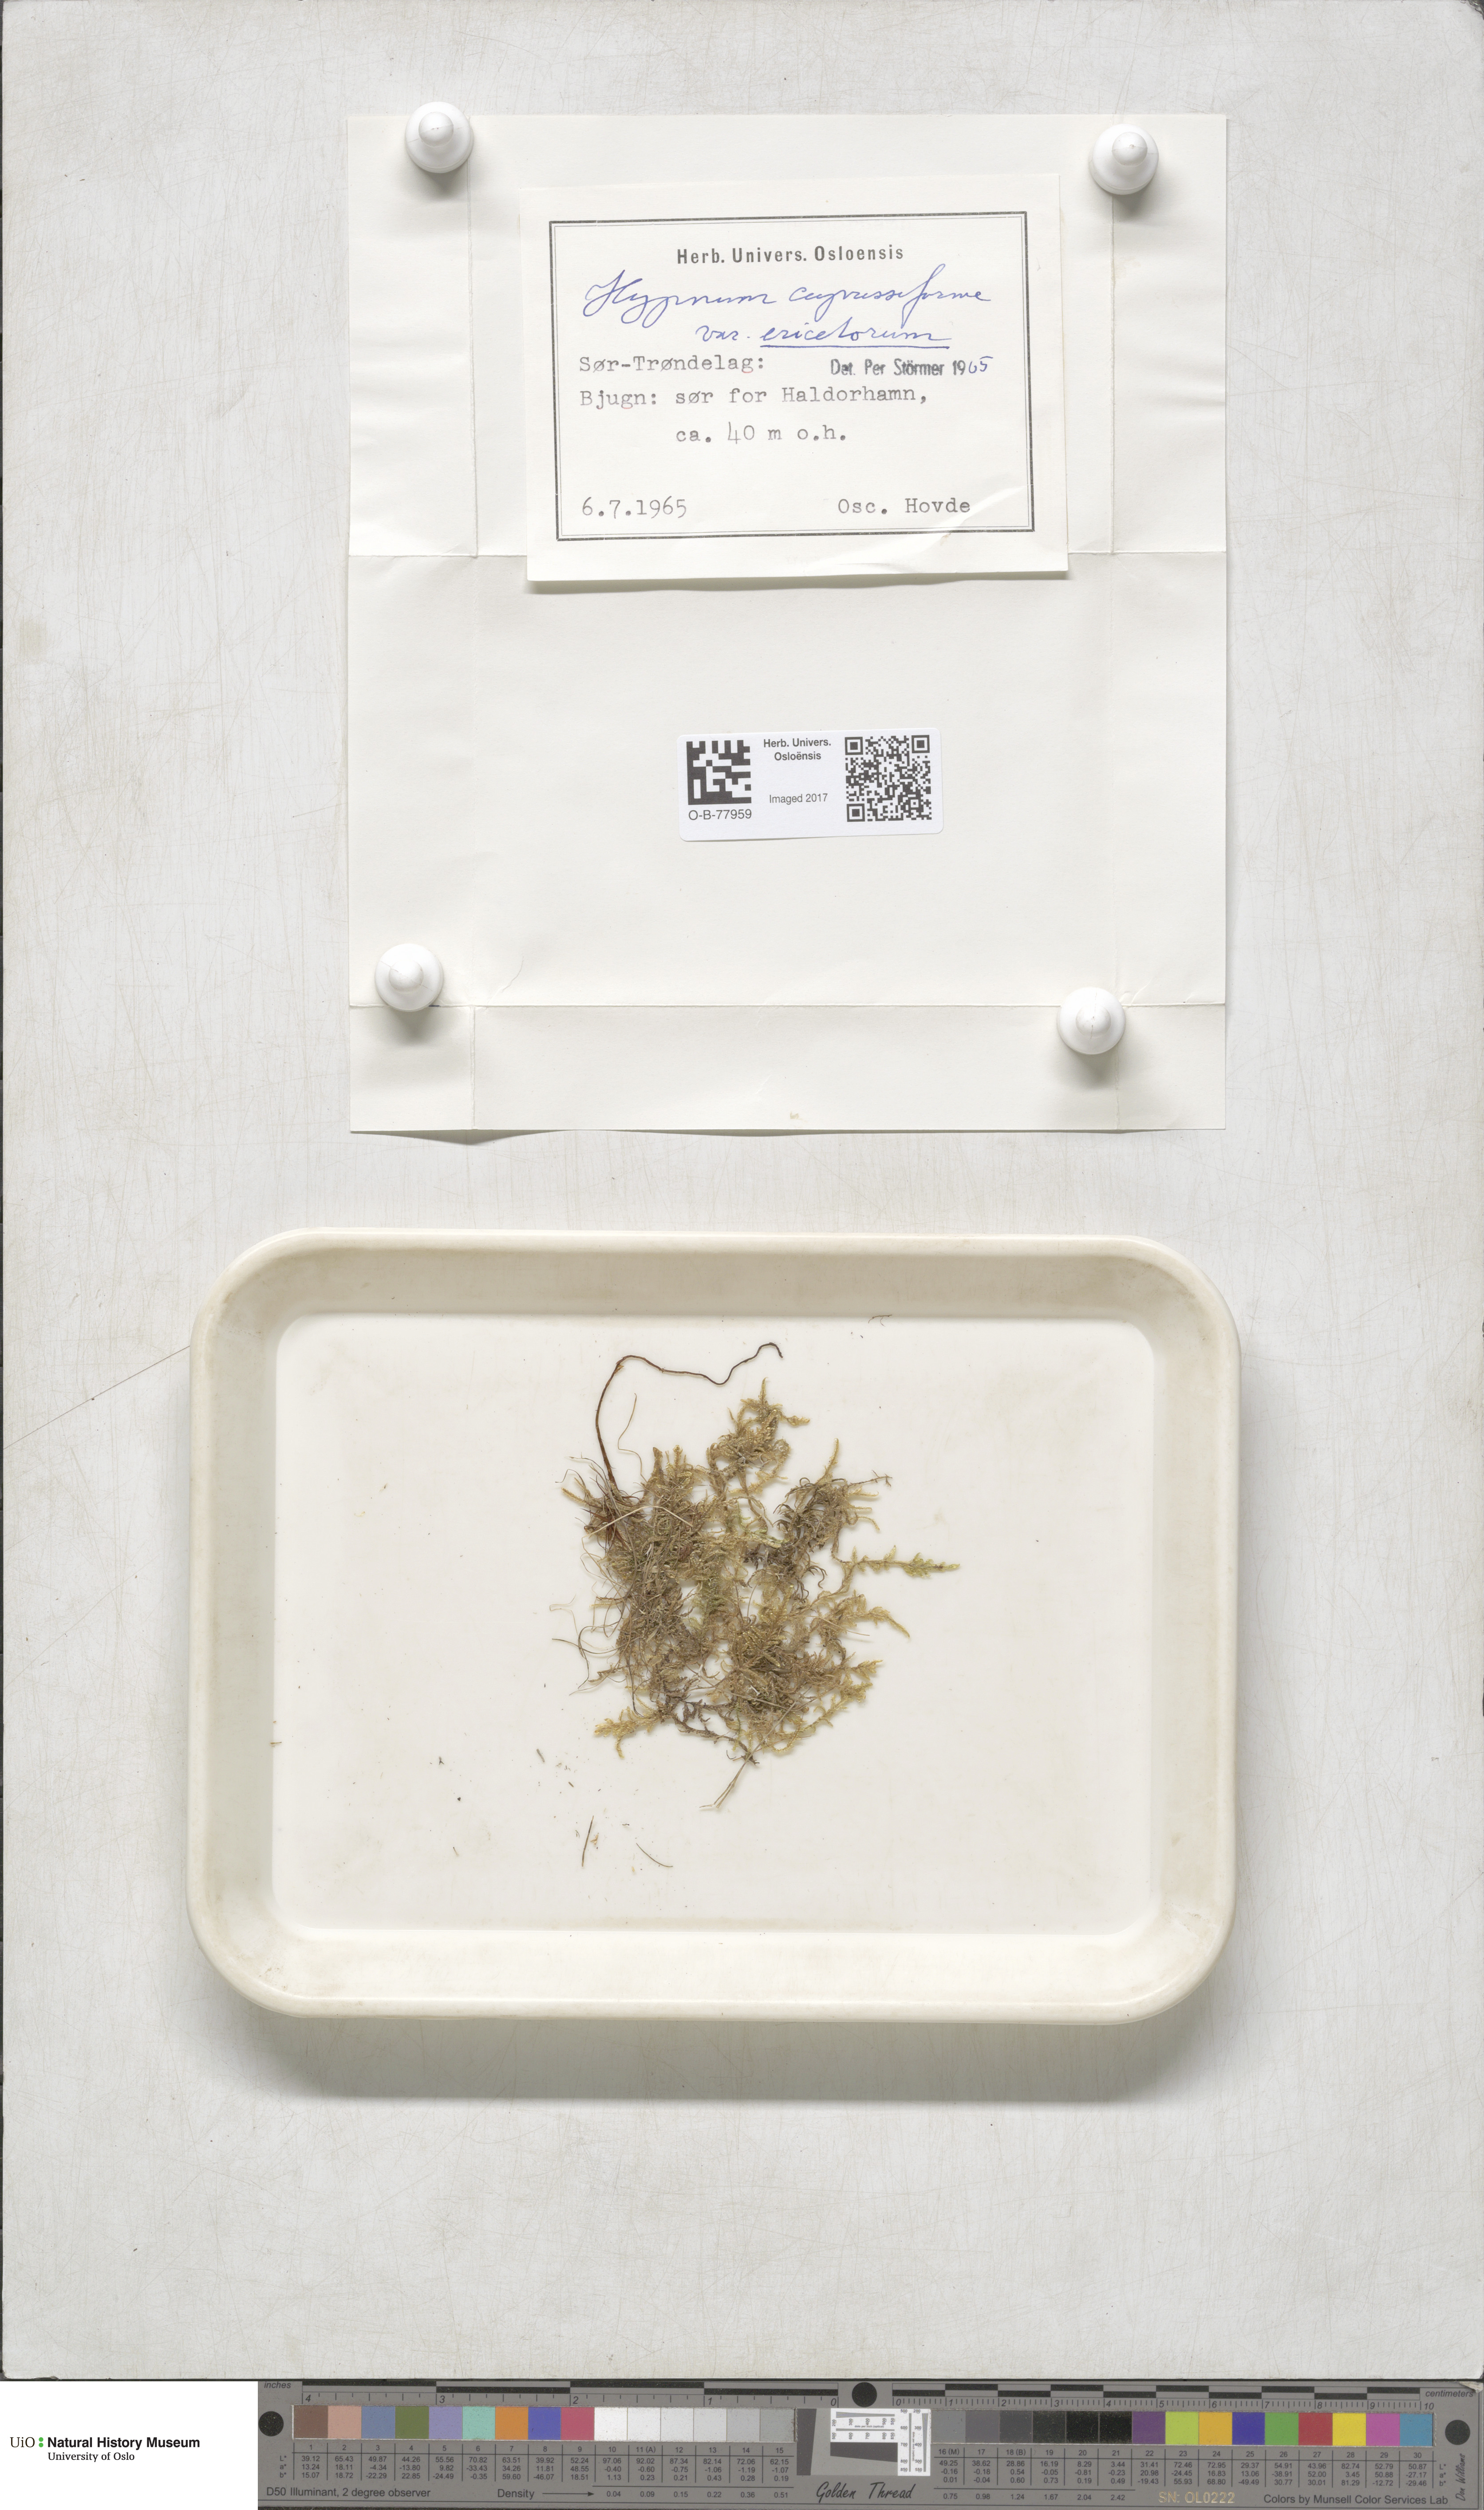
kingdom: Plantae
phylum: Bryophyta
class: Bryopsida
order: Hypnales
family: Hypnaceae
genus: Hypnum
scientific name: Hypnum jutlandicum
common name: Heath plait-moss
